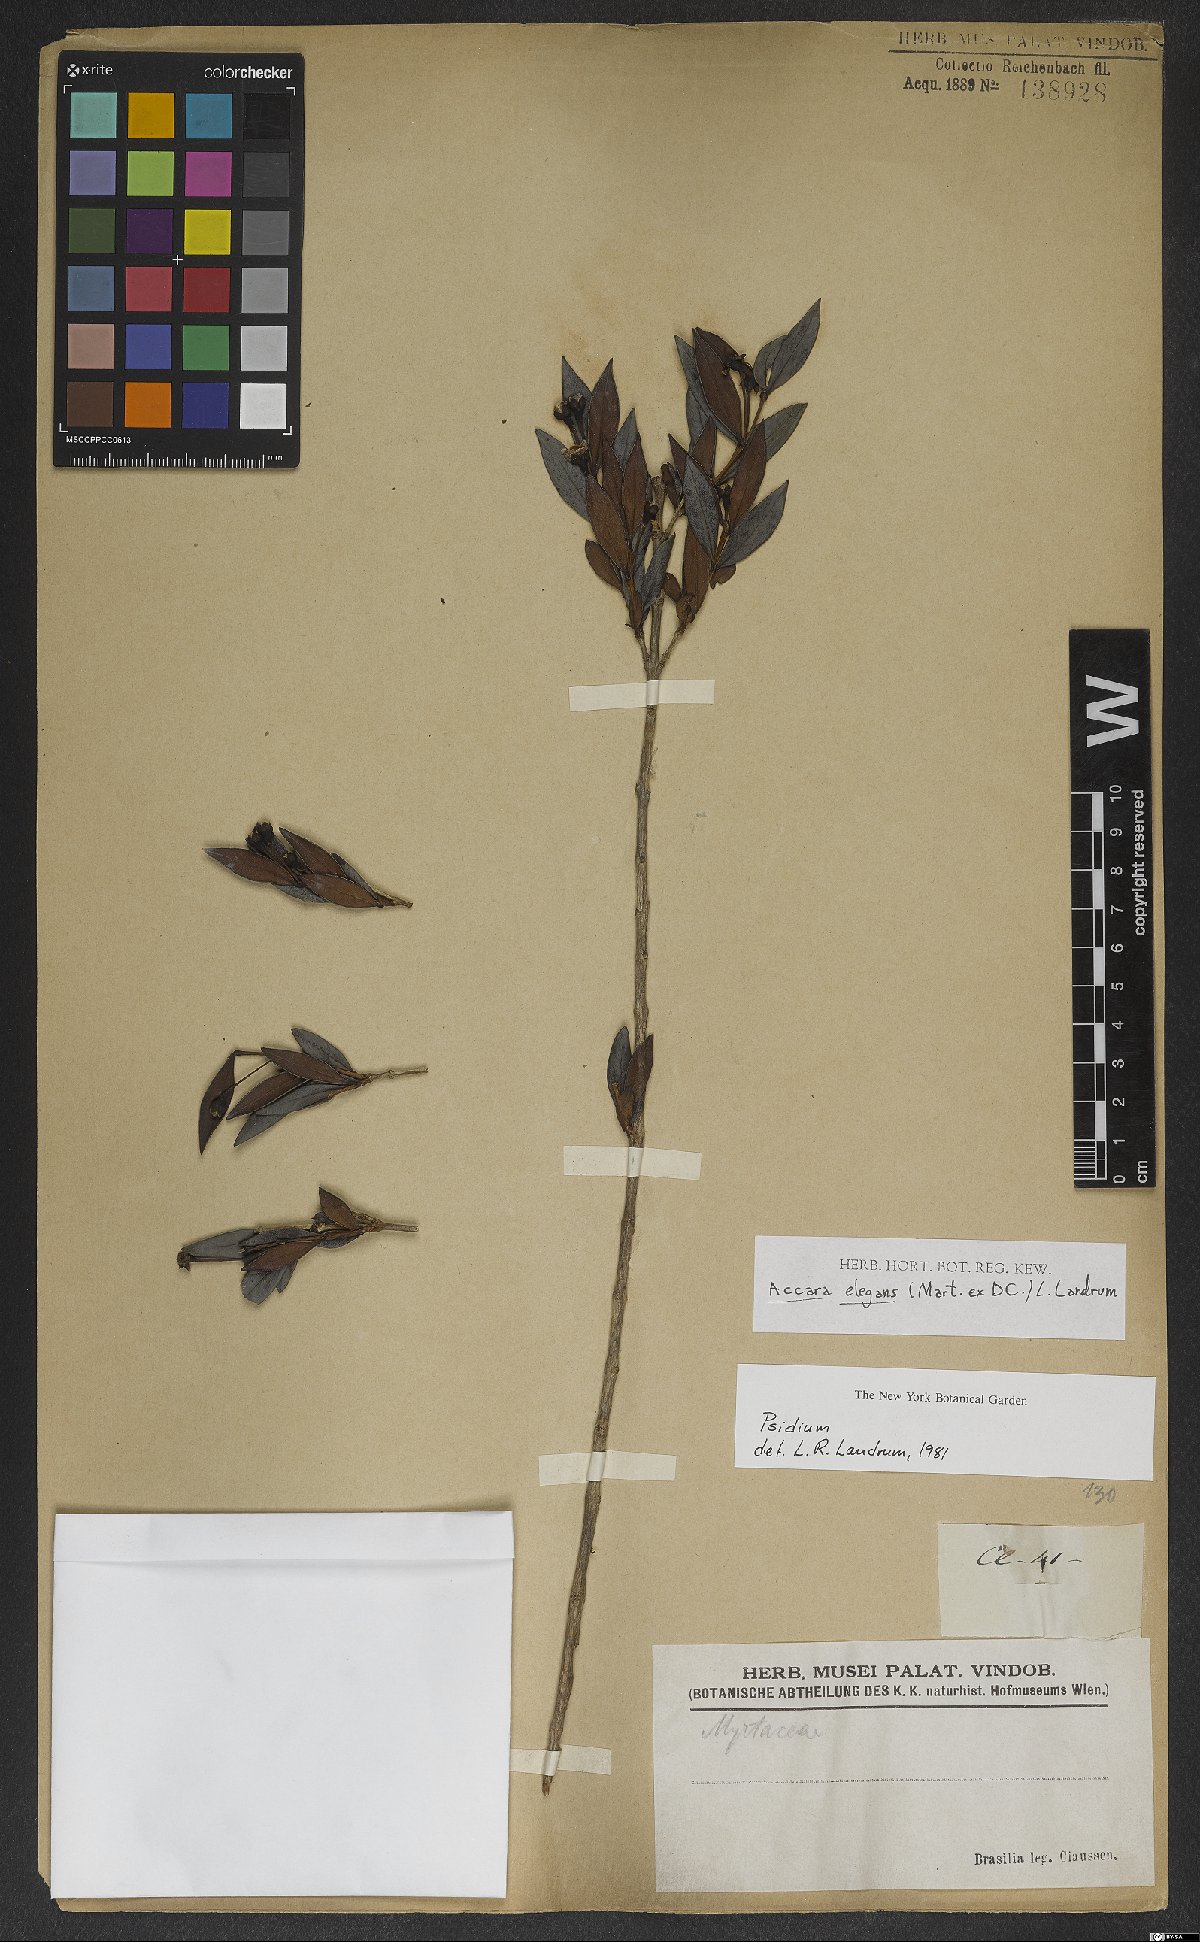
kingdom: Plantae
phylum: Tracheophyta
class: Magnoliopsida
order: Myrtales
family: Myrtaceae
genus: Accara
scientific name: Accara elegans
